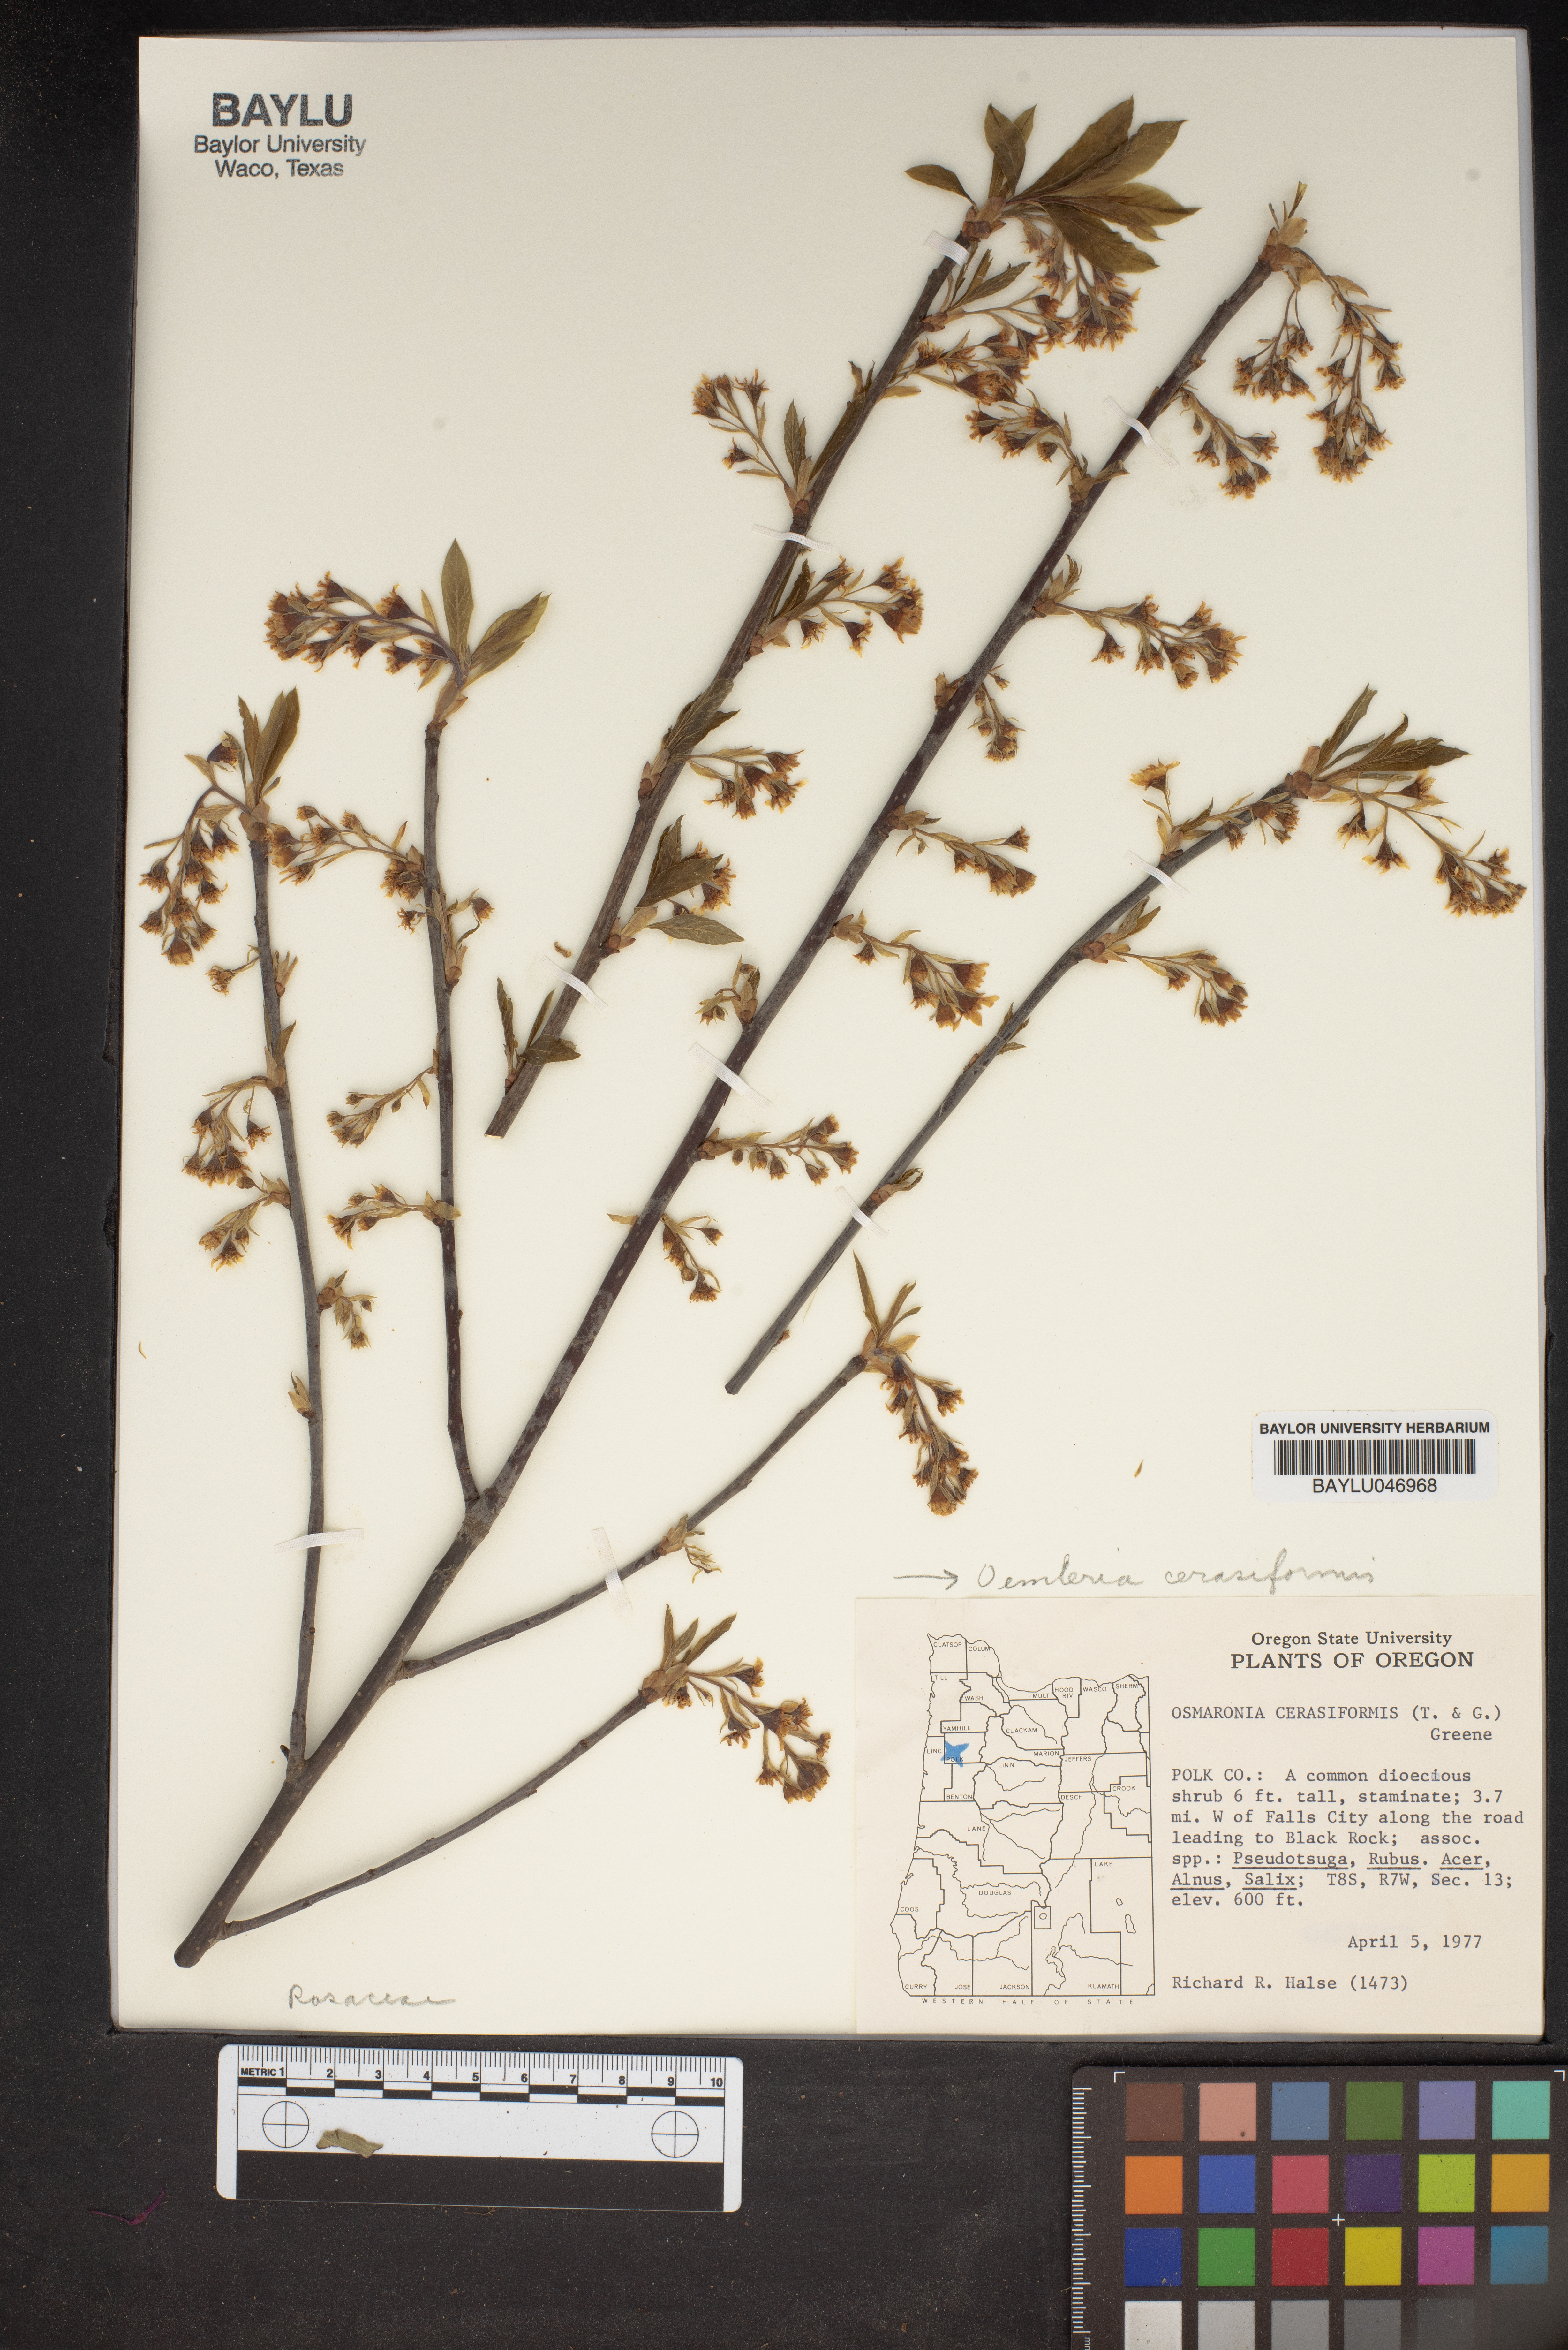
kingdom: Plantae
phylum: Tracheophyta
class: Magnoliopsida
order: Rosales
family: Rosaceae
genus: Oemleria
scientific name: Oemleria cerasiformis
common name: Osoberry
